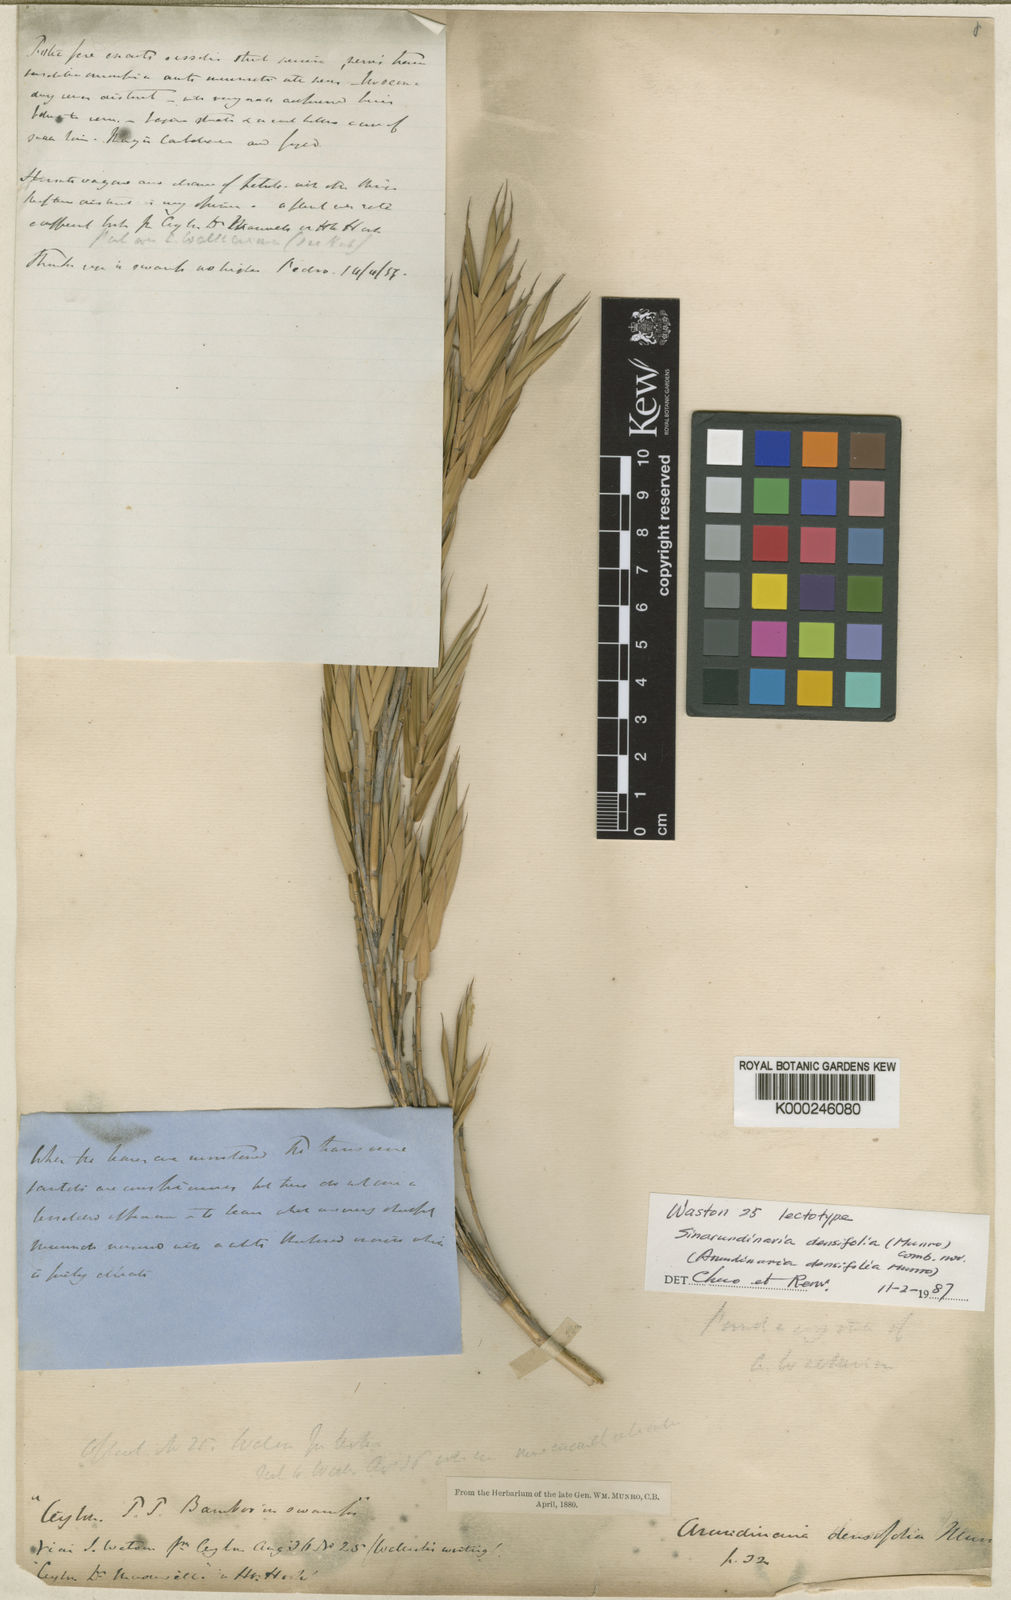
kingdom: Plantae
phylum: Tracheophyta
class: Liliopsida
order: Poales
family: Poaceae
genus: Kuruna
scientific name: Kuruna densifolia
